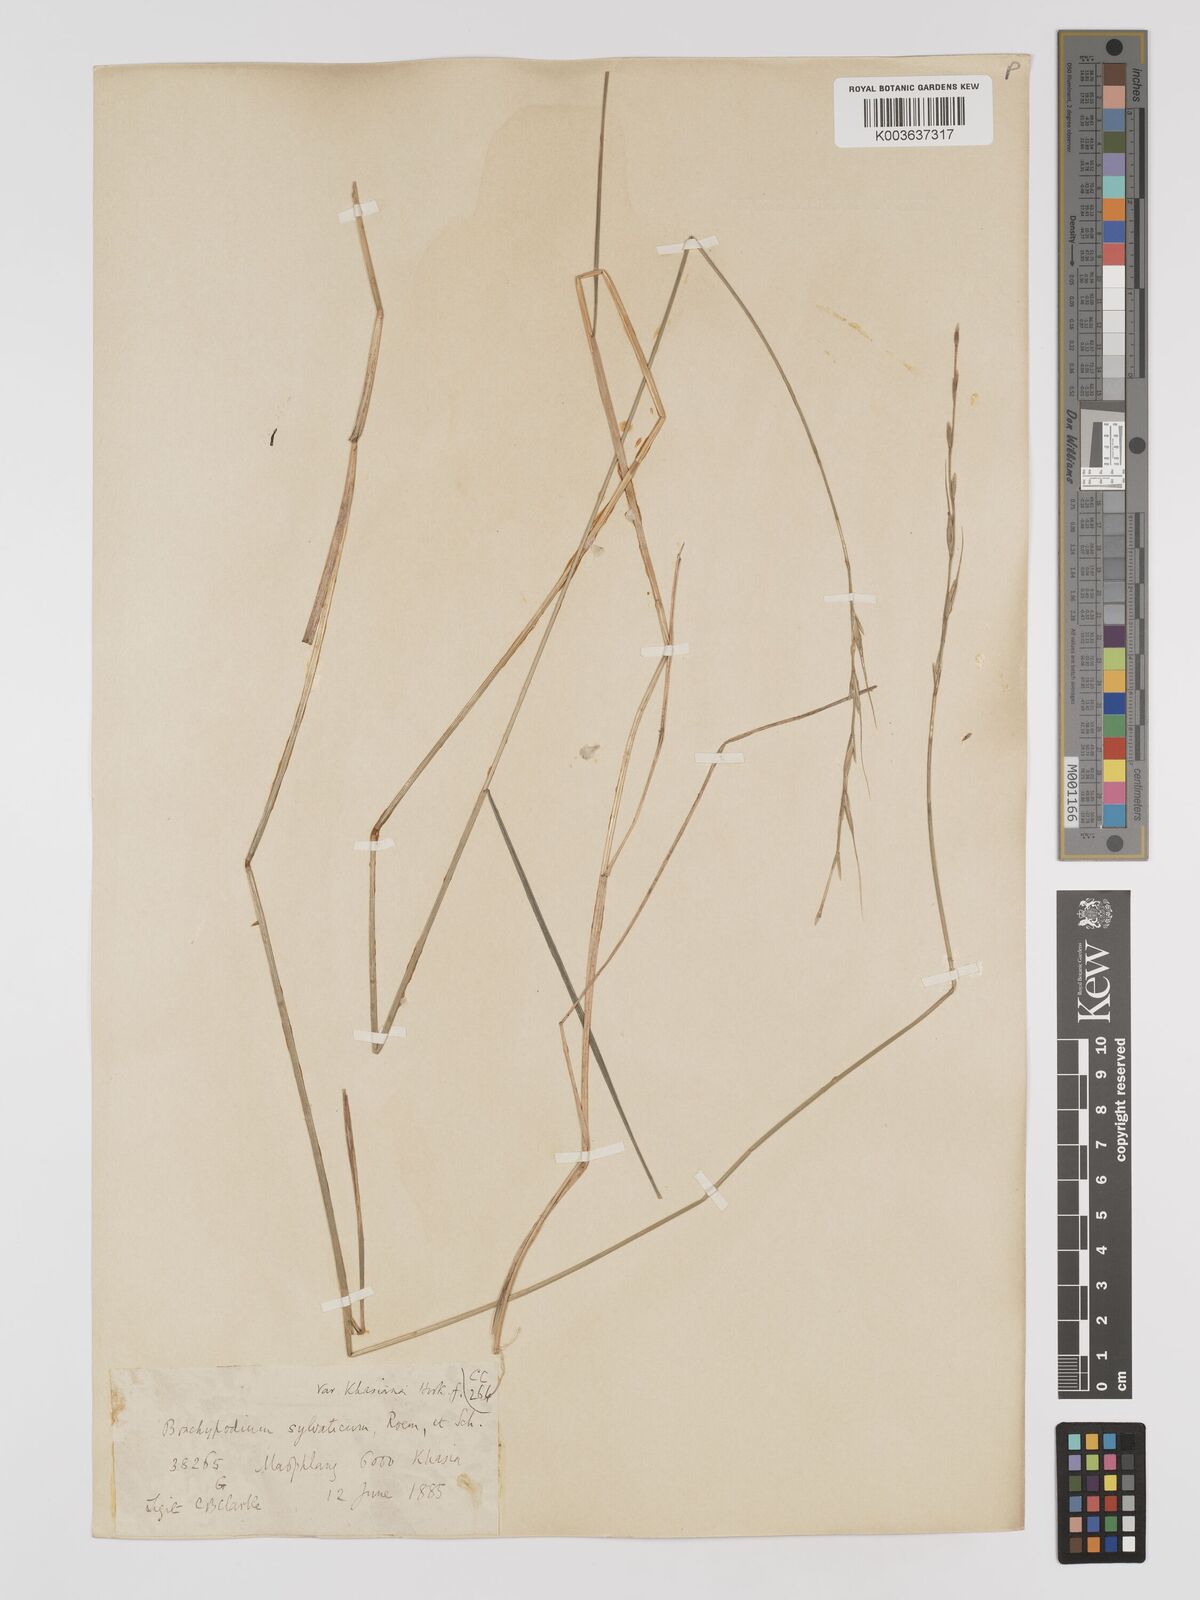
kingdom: Plantae
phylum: Tracheophyta
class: Liliopsida
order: Poales
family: Poaceae
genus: Brachypodium
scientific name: Brachypodium sylvaticum
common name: False-brome
